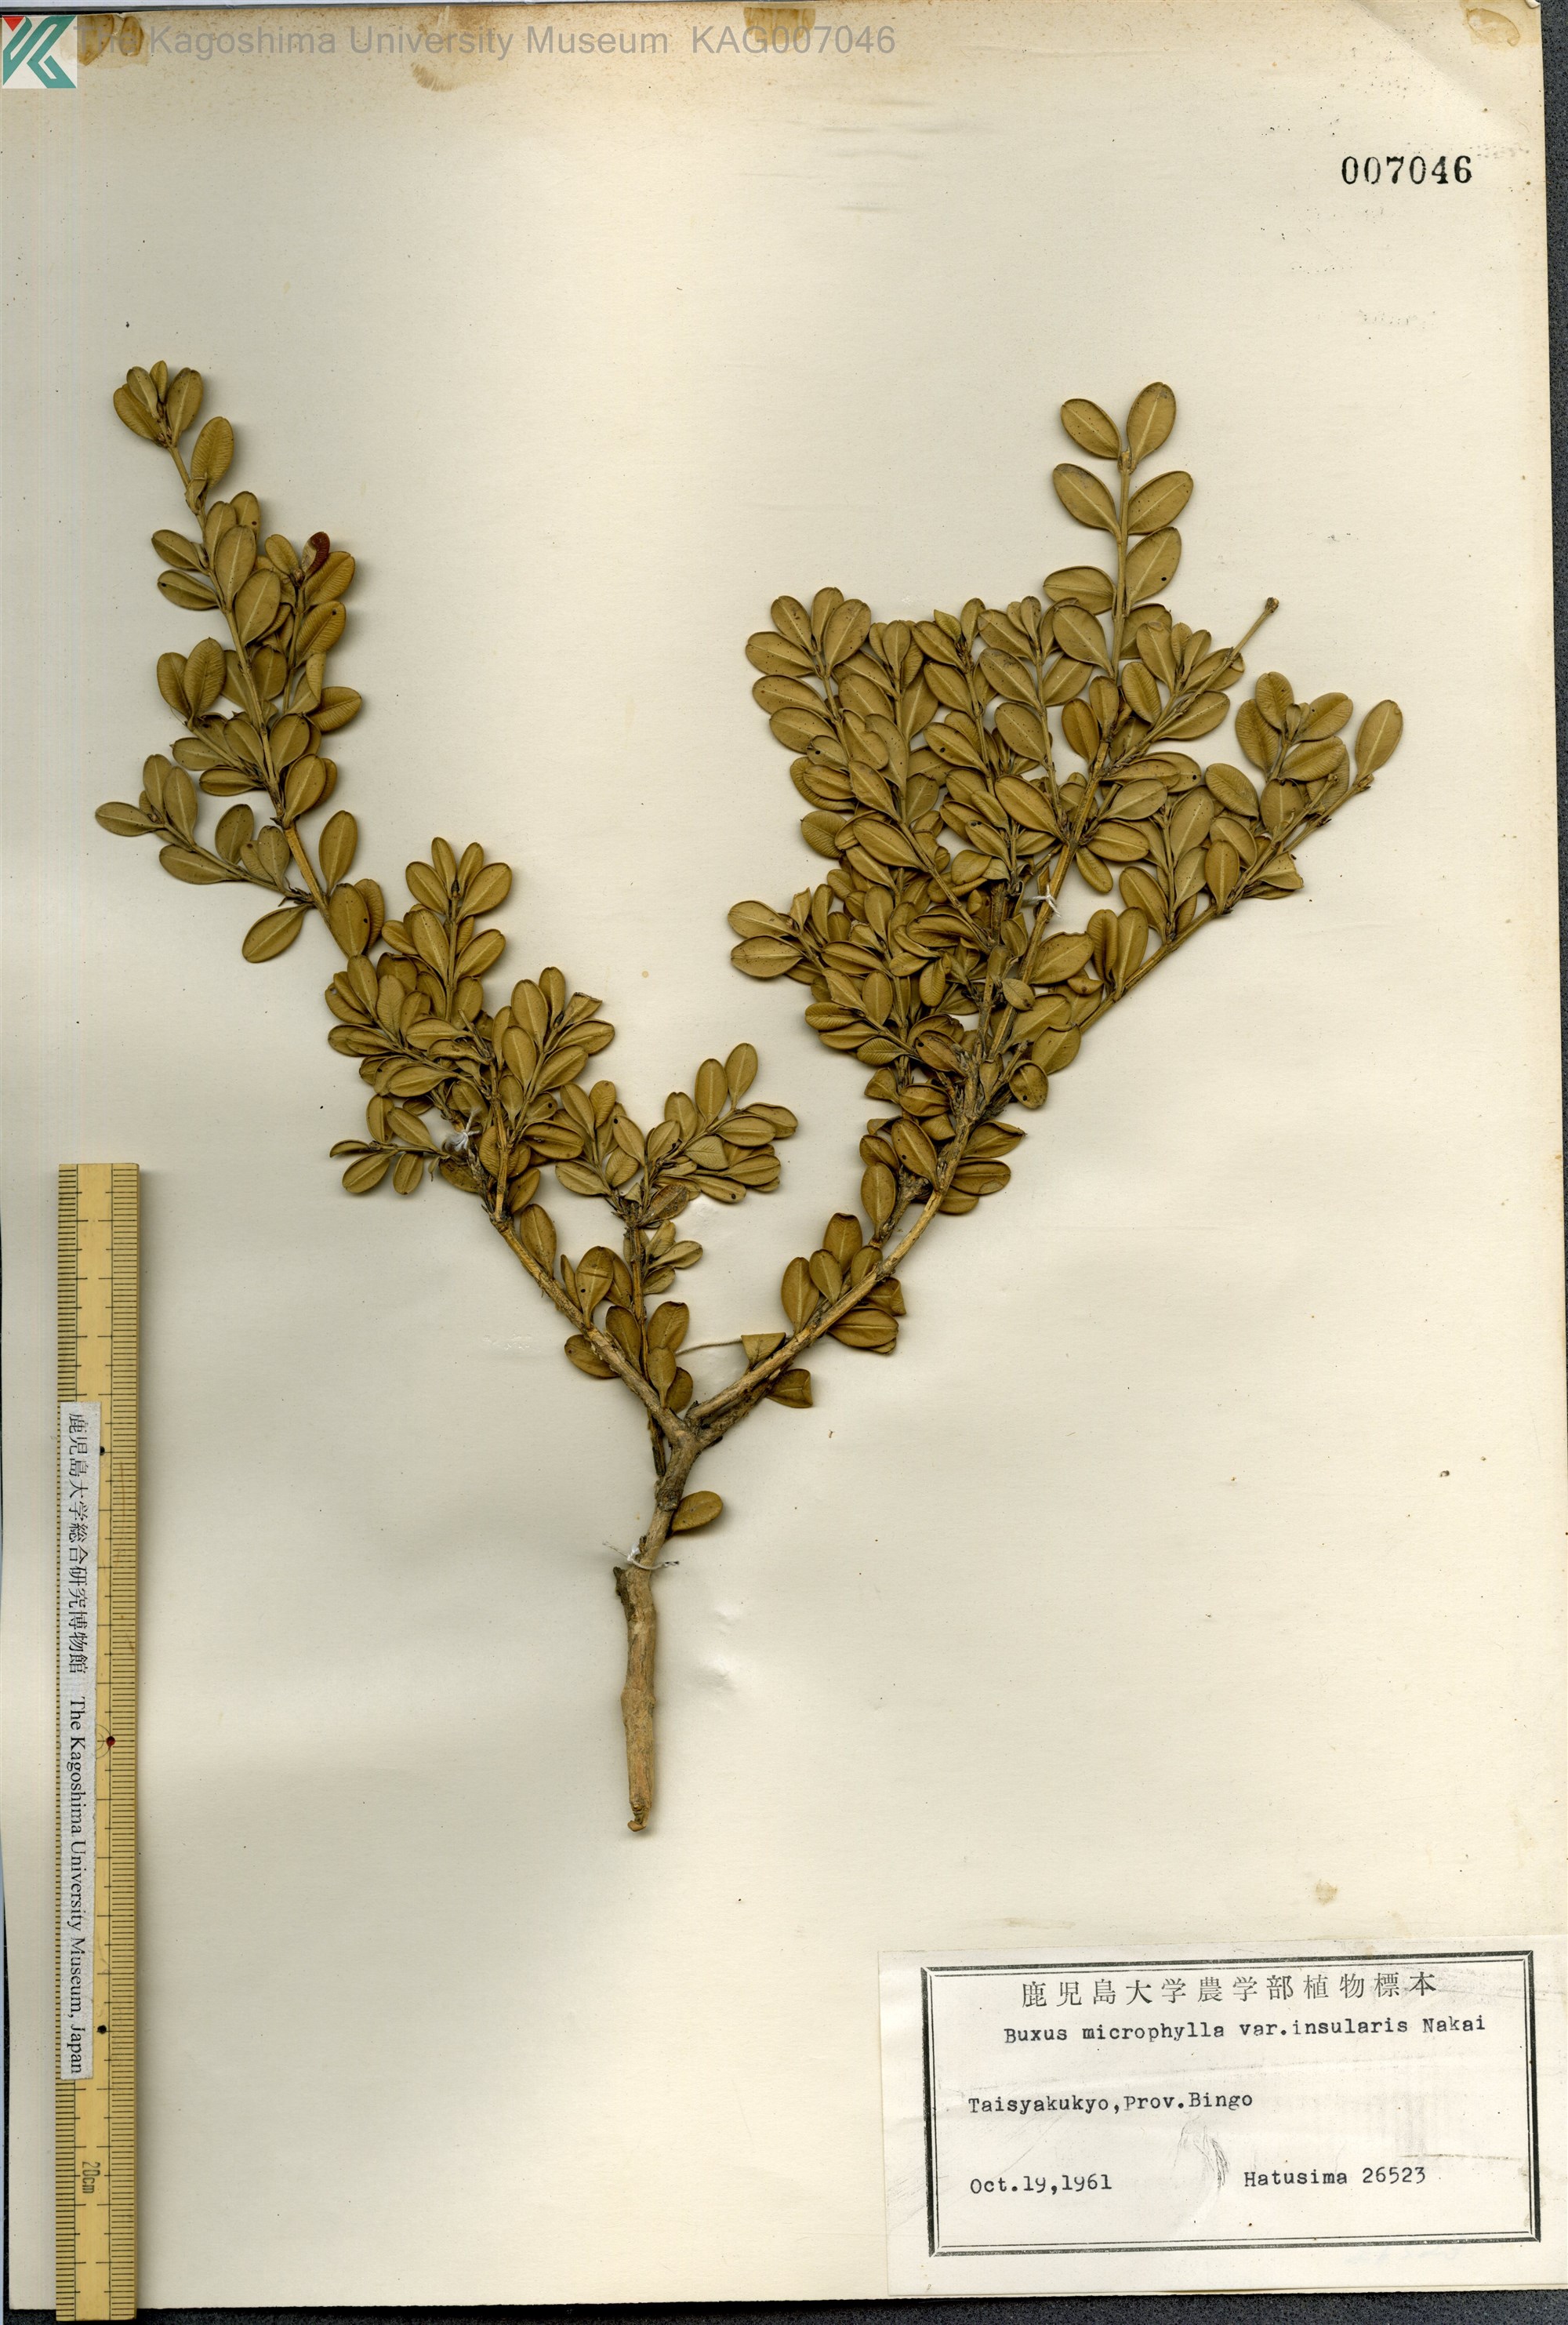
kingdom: Plantae
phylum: Tracheophyta
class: Magnoliopsida
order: Buxales
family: Buxaceae
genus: Buxus
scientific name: Buxus sinica
